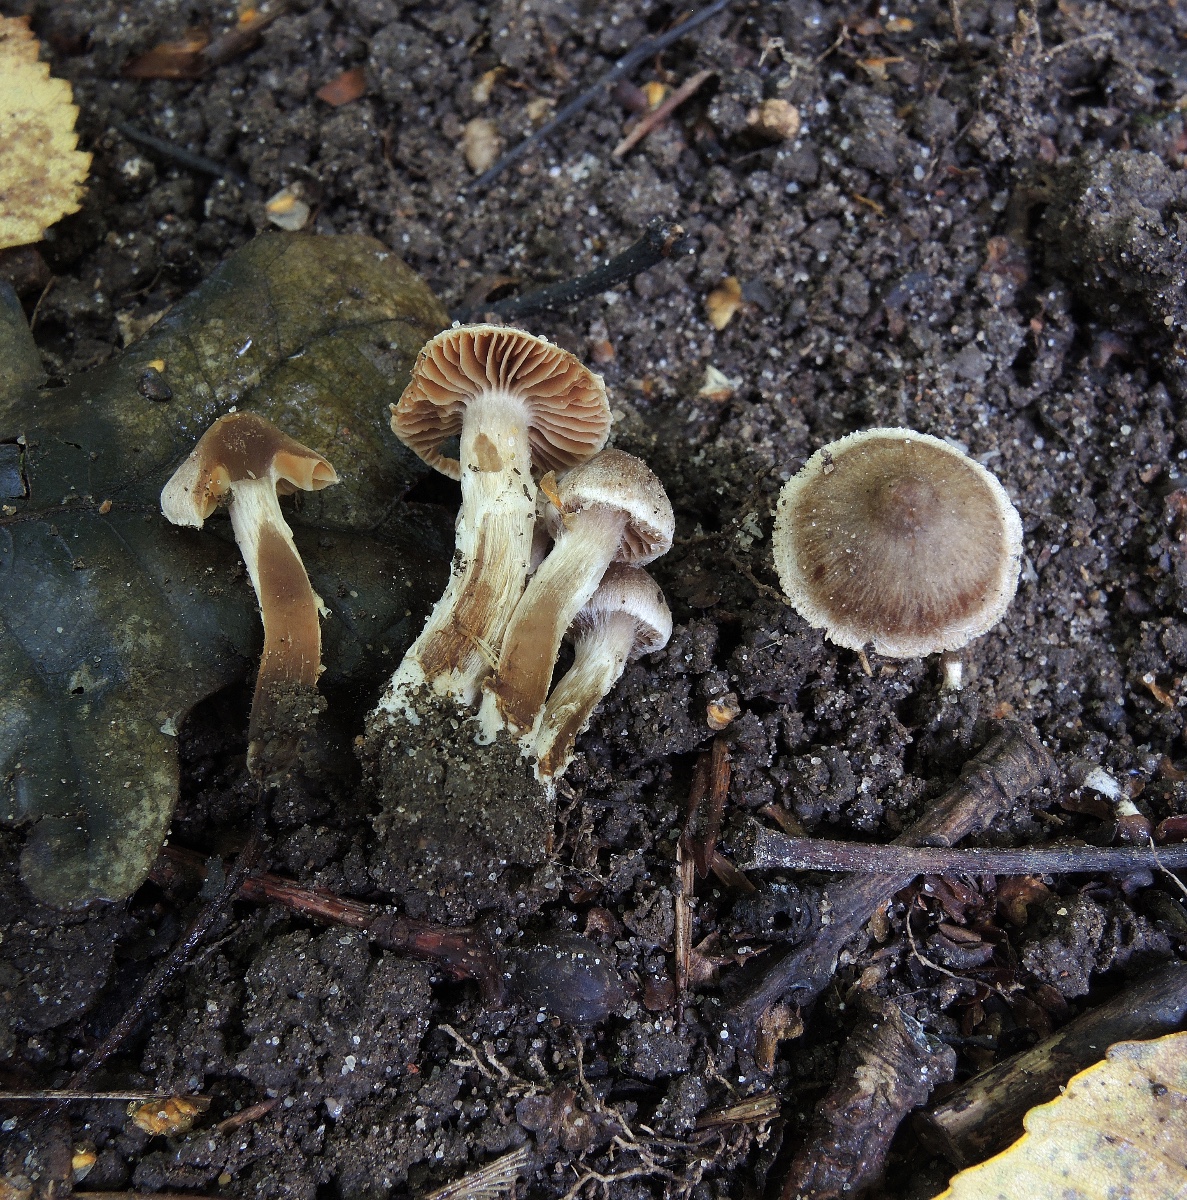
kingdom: Fungi
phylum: Basidiomycota
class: Agaricomycetes
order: Agaricales
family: Cortinariaceae
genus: Cortinarius
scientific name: Cortinarius megacystidiosus
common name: lavbæltet slørhat
